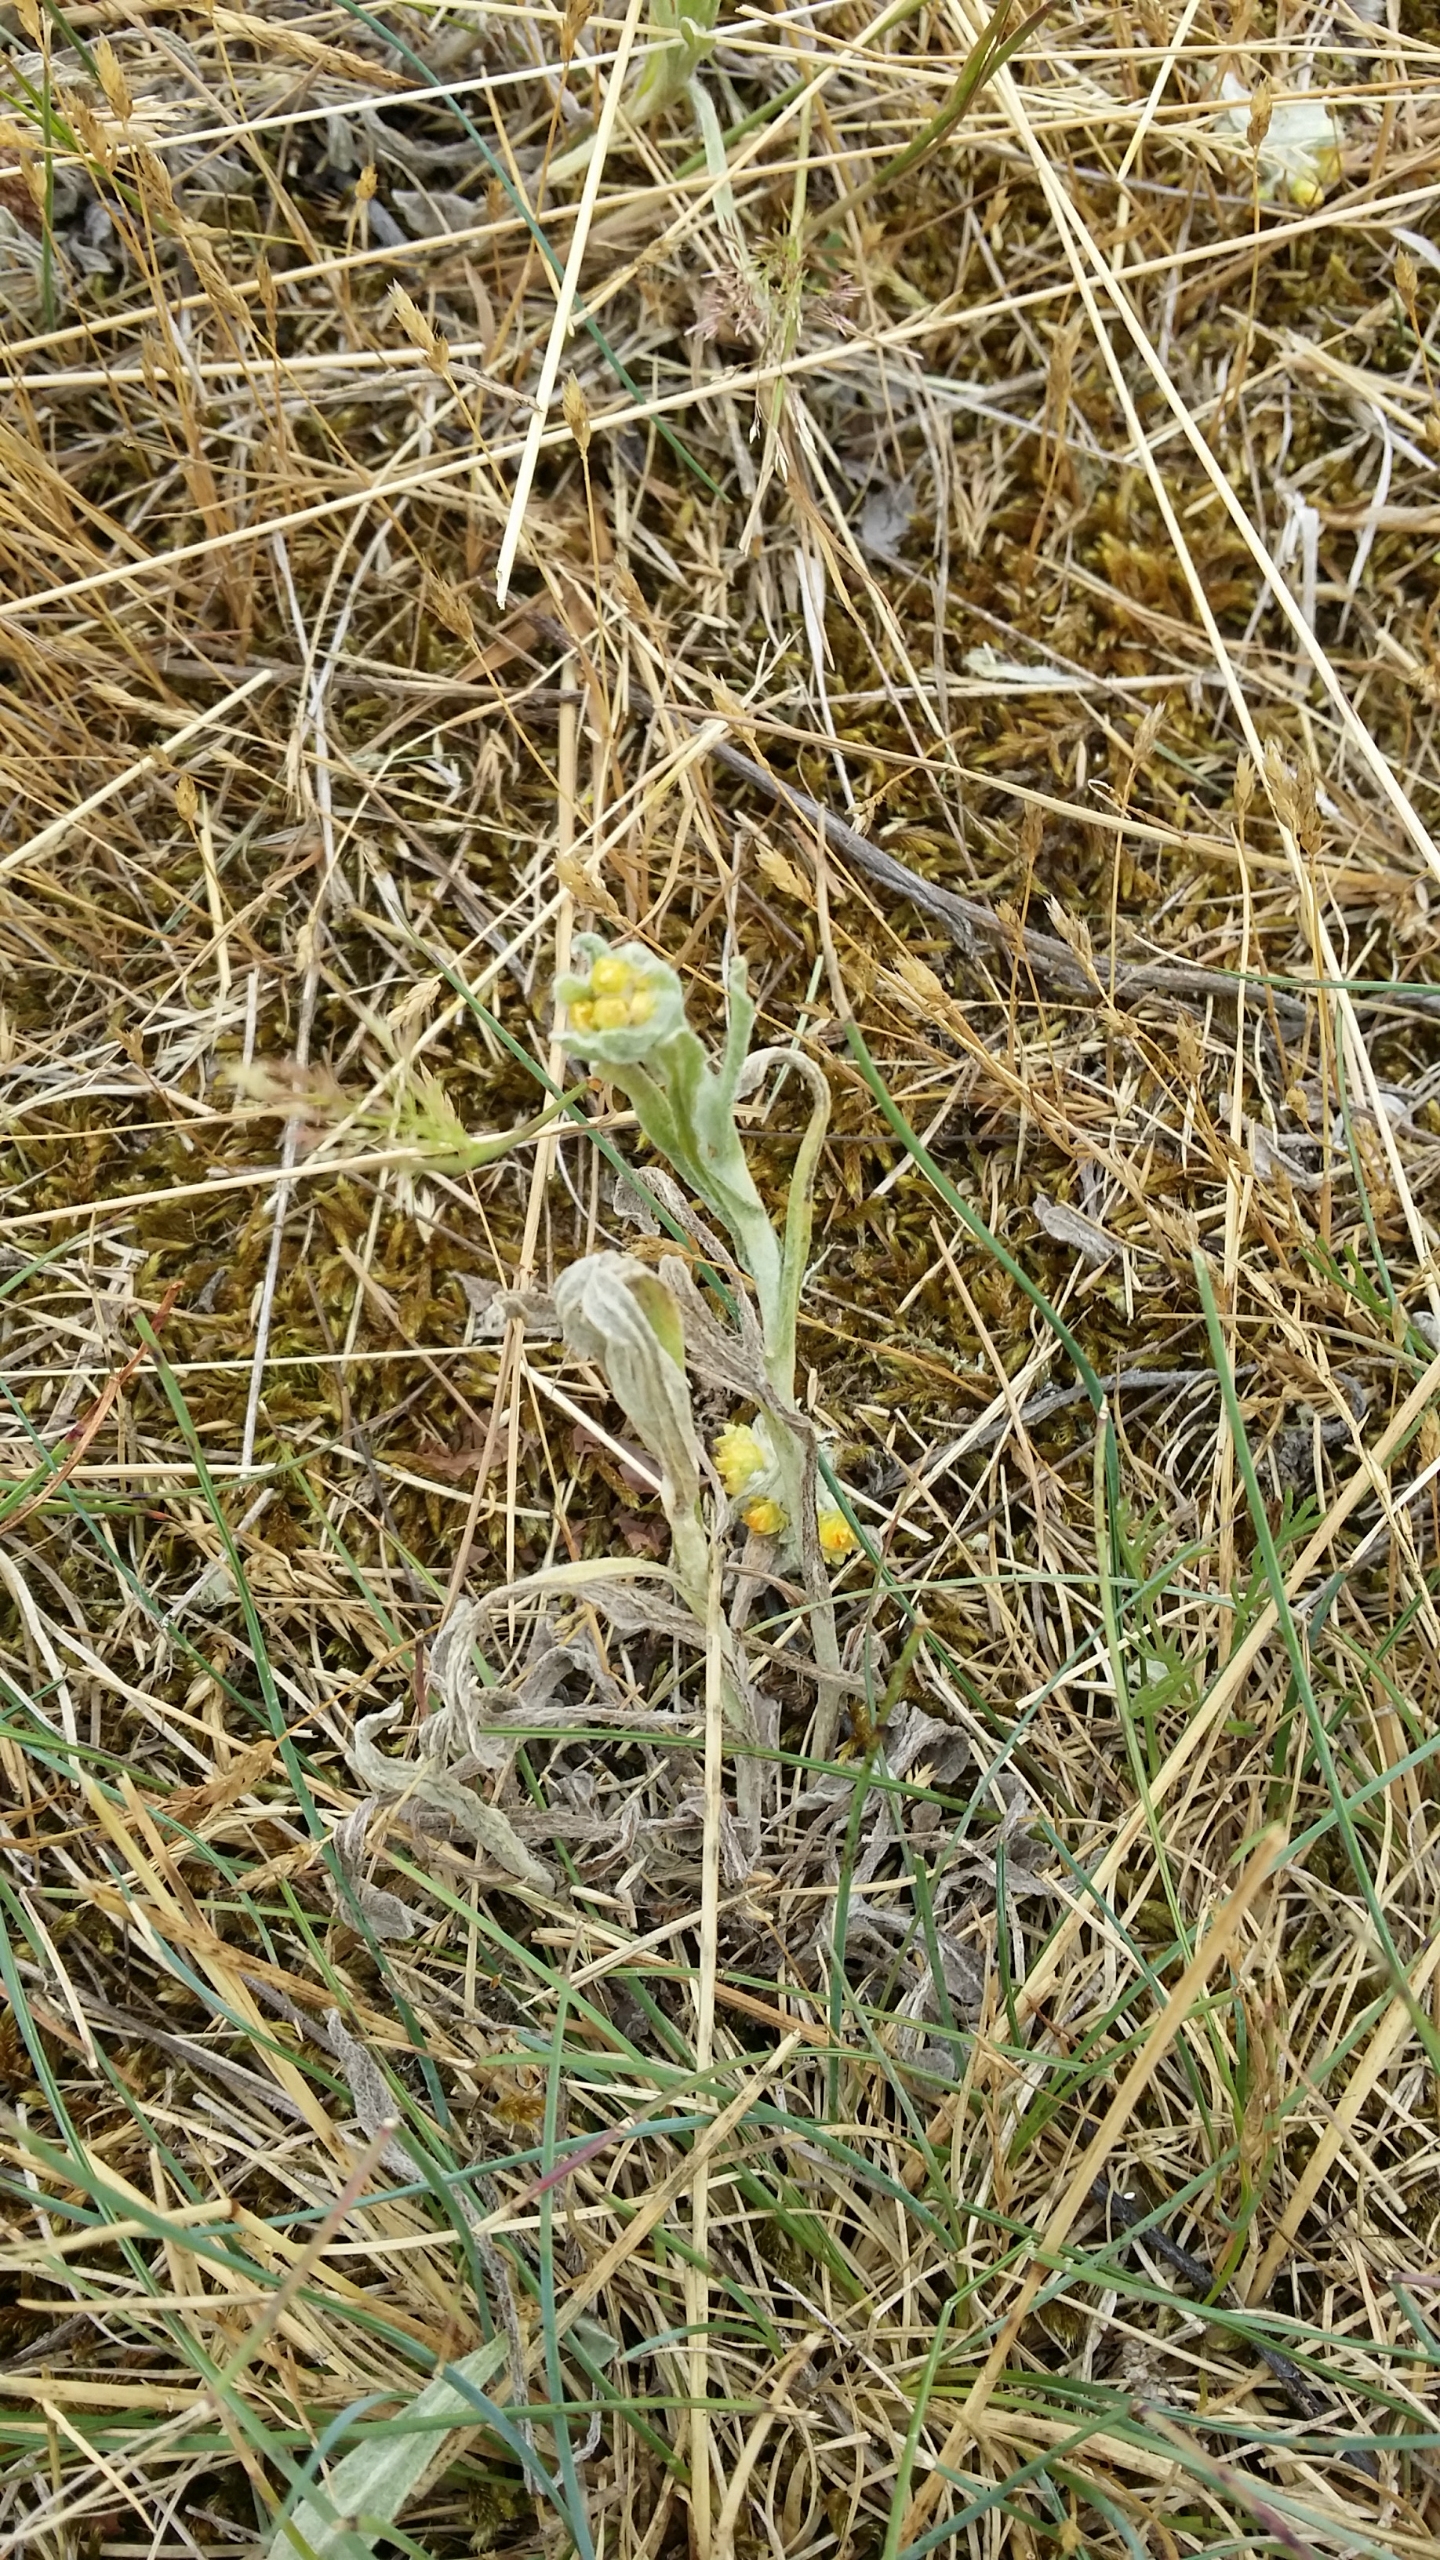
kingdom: Plantae
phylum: Tracheophyta
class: Magnoliopsida
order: Asterales
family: Asteraceae
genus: Helichrysum
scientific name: Helichrysum arenarium
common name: Gul evighedsblomst
